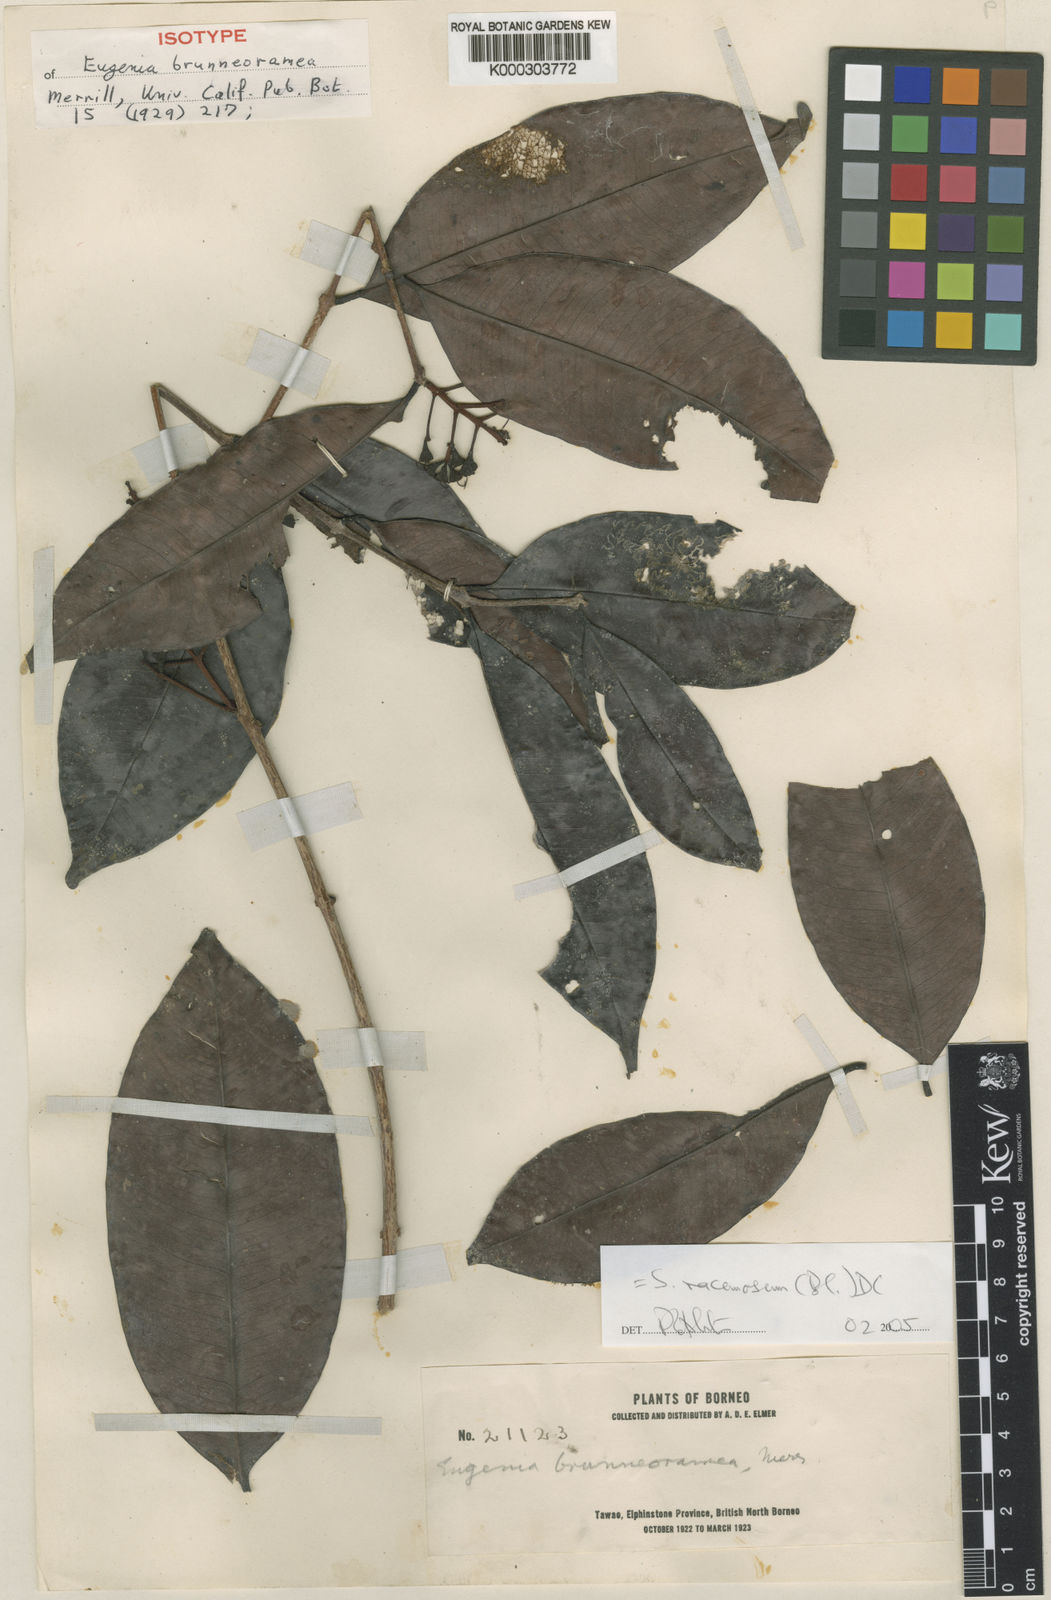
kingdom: Plantae
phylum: Tracheophyta
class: Magnoliopsida
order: Myrtales
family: Myrtaceae
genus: Syzygium
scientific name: Syzygium racemosum
